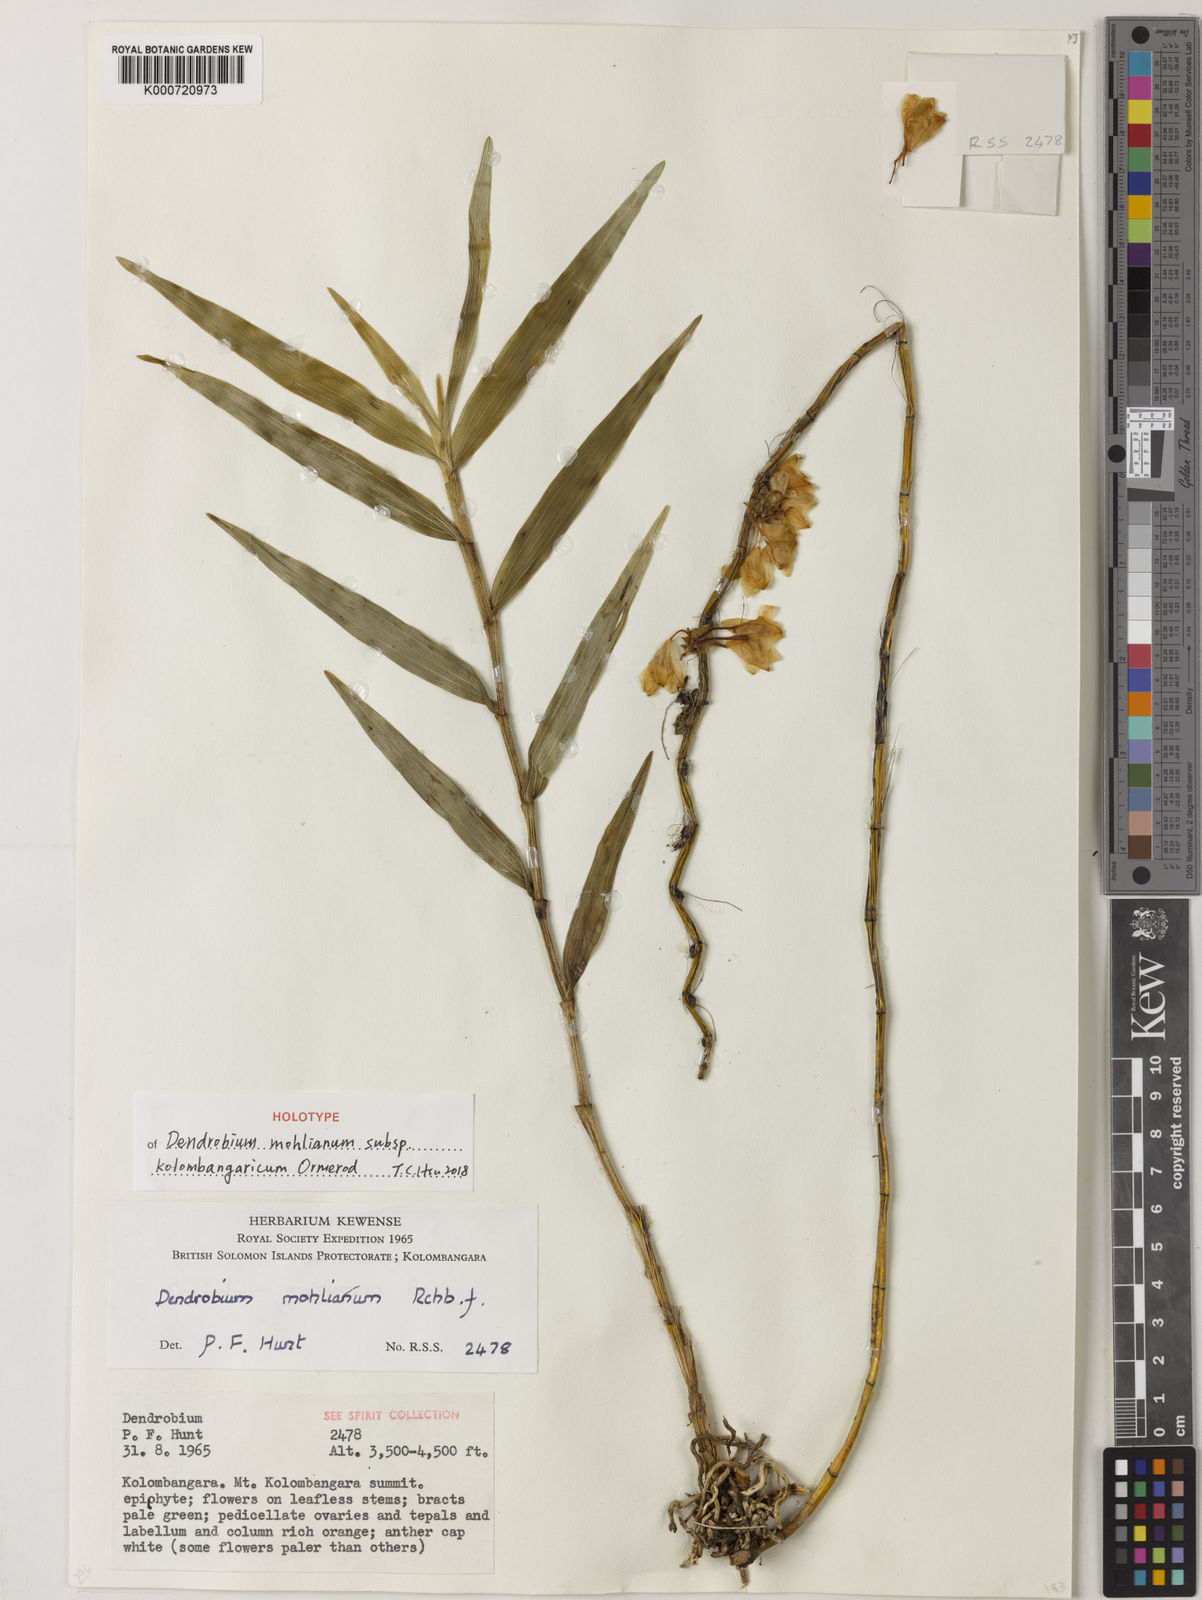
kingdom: Plantae
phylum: Tracheophyta
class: Liliopsida
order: Asparagales
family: Orchidaceae
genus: Dendrobium
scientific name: Dendrobium mohlianum
